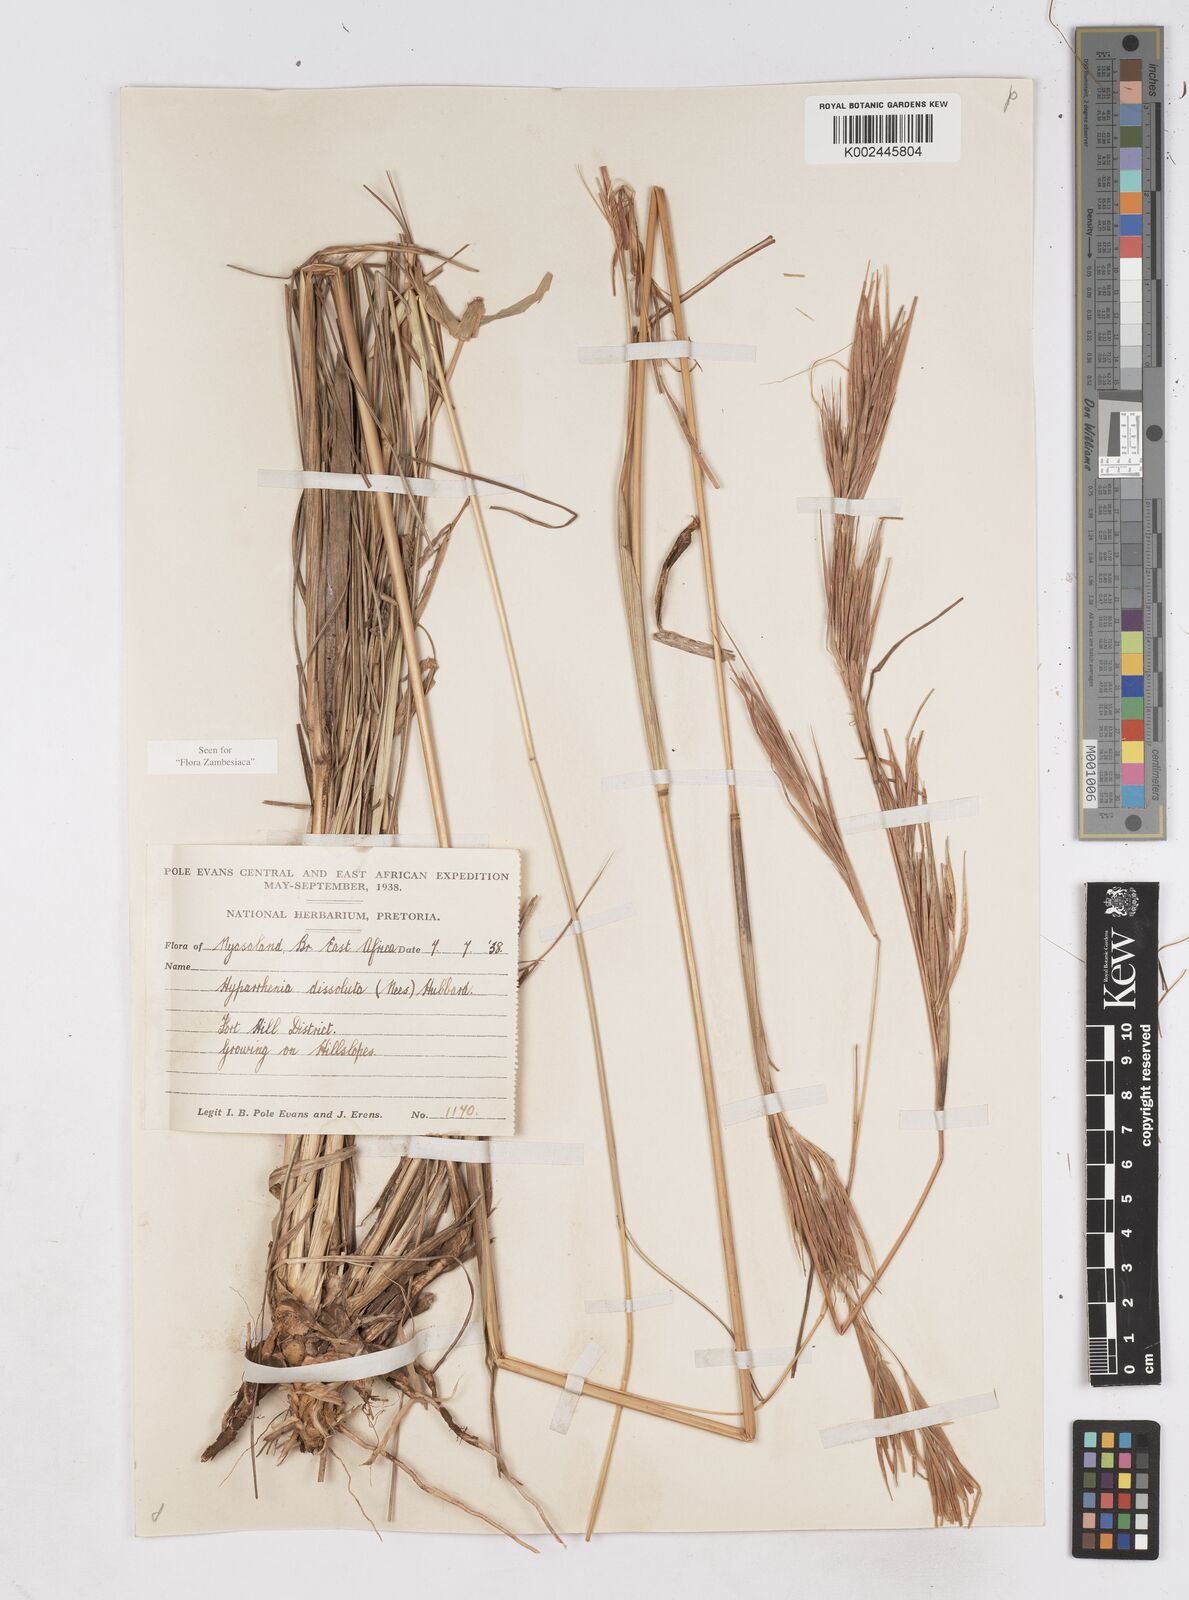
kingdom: Plantae
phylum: Tracheophyta
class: Liliopsida
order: Poales
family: Poaceae
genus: Hyperthelia
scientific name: Hyperthelia dissoluta
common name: Yellow thatching grass
